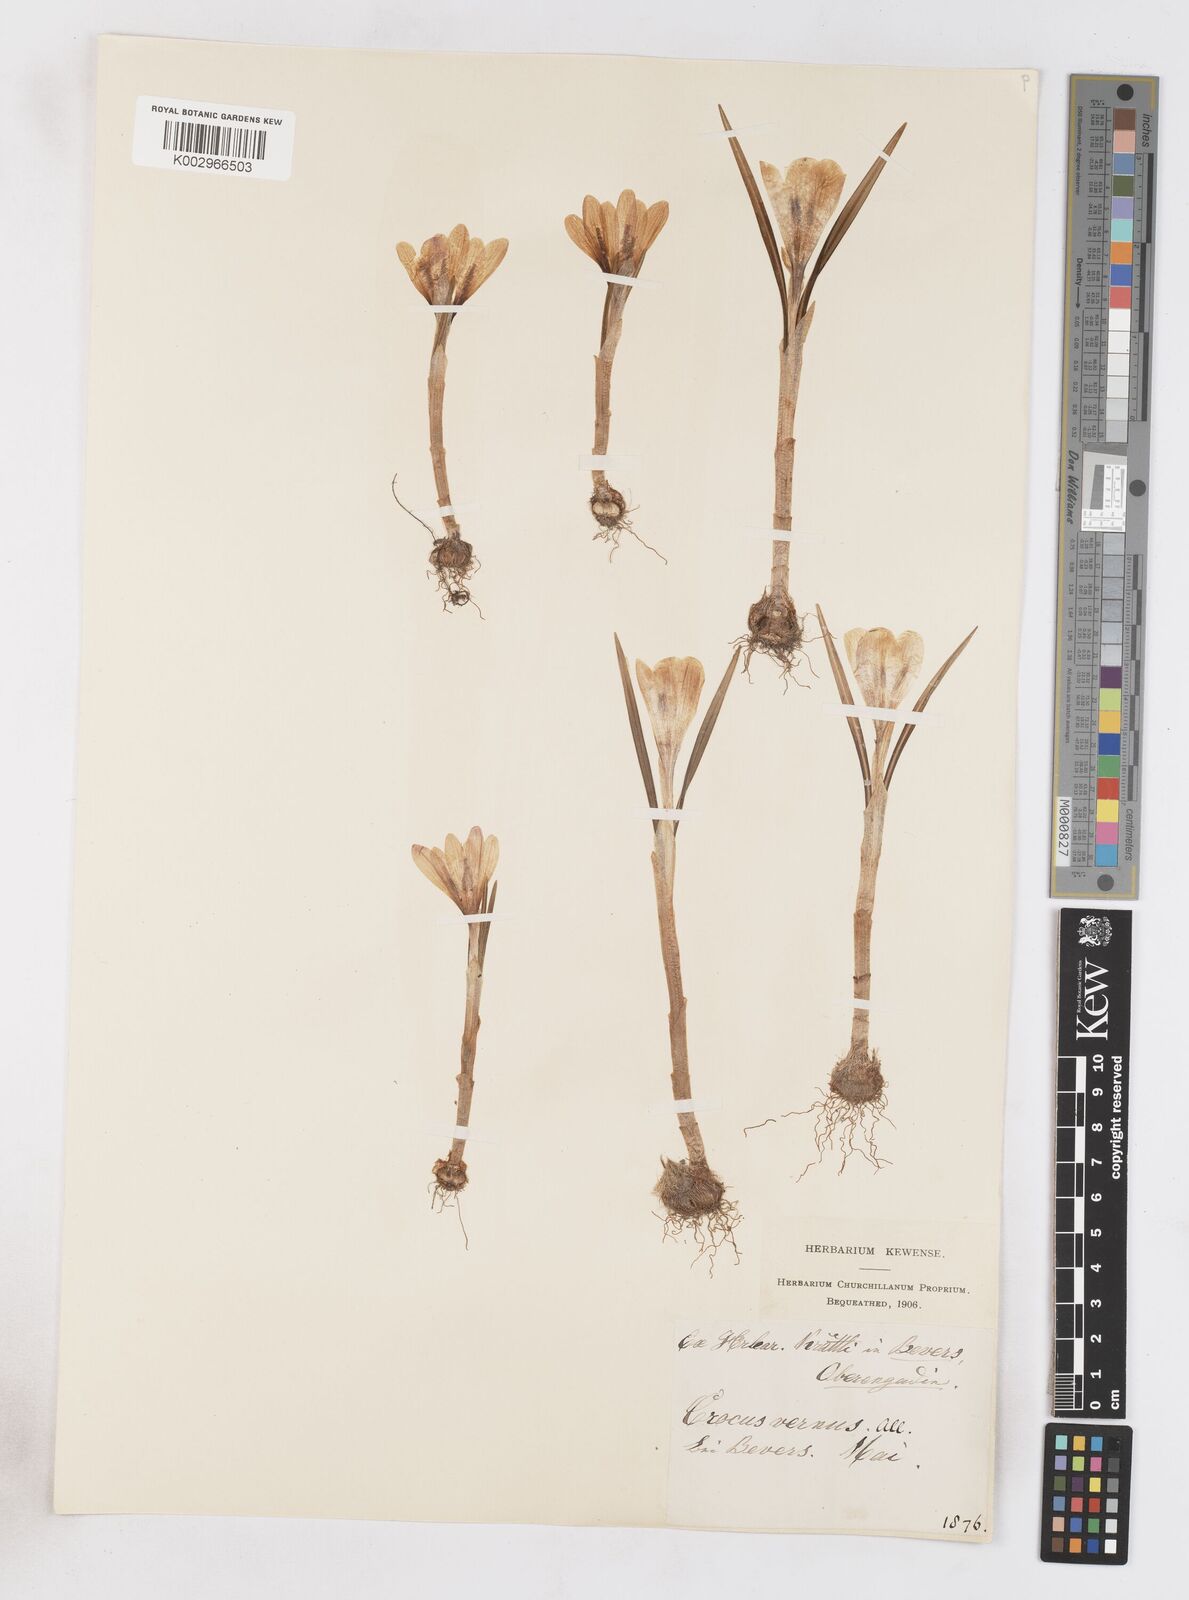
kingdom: Plantae
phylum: Tracheophyta
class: Liliopsida
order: Asparagales
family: Iridaceae
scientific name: Iridaceae
